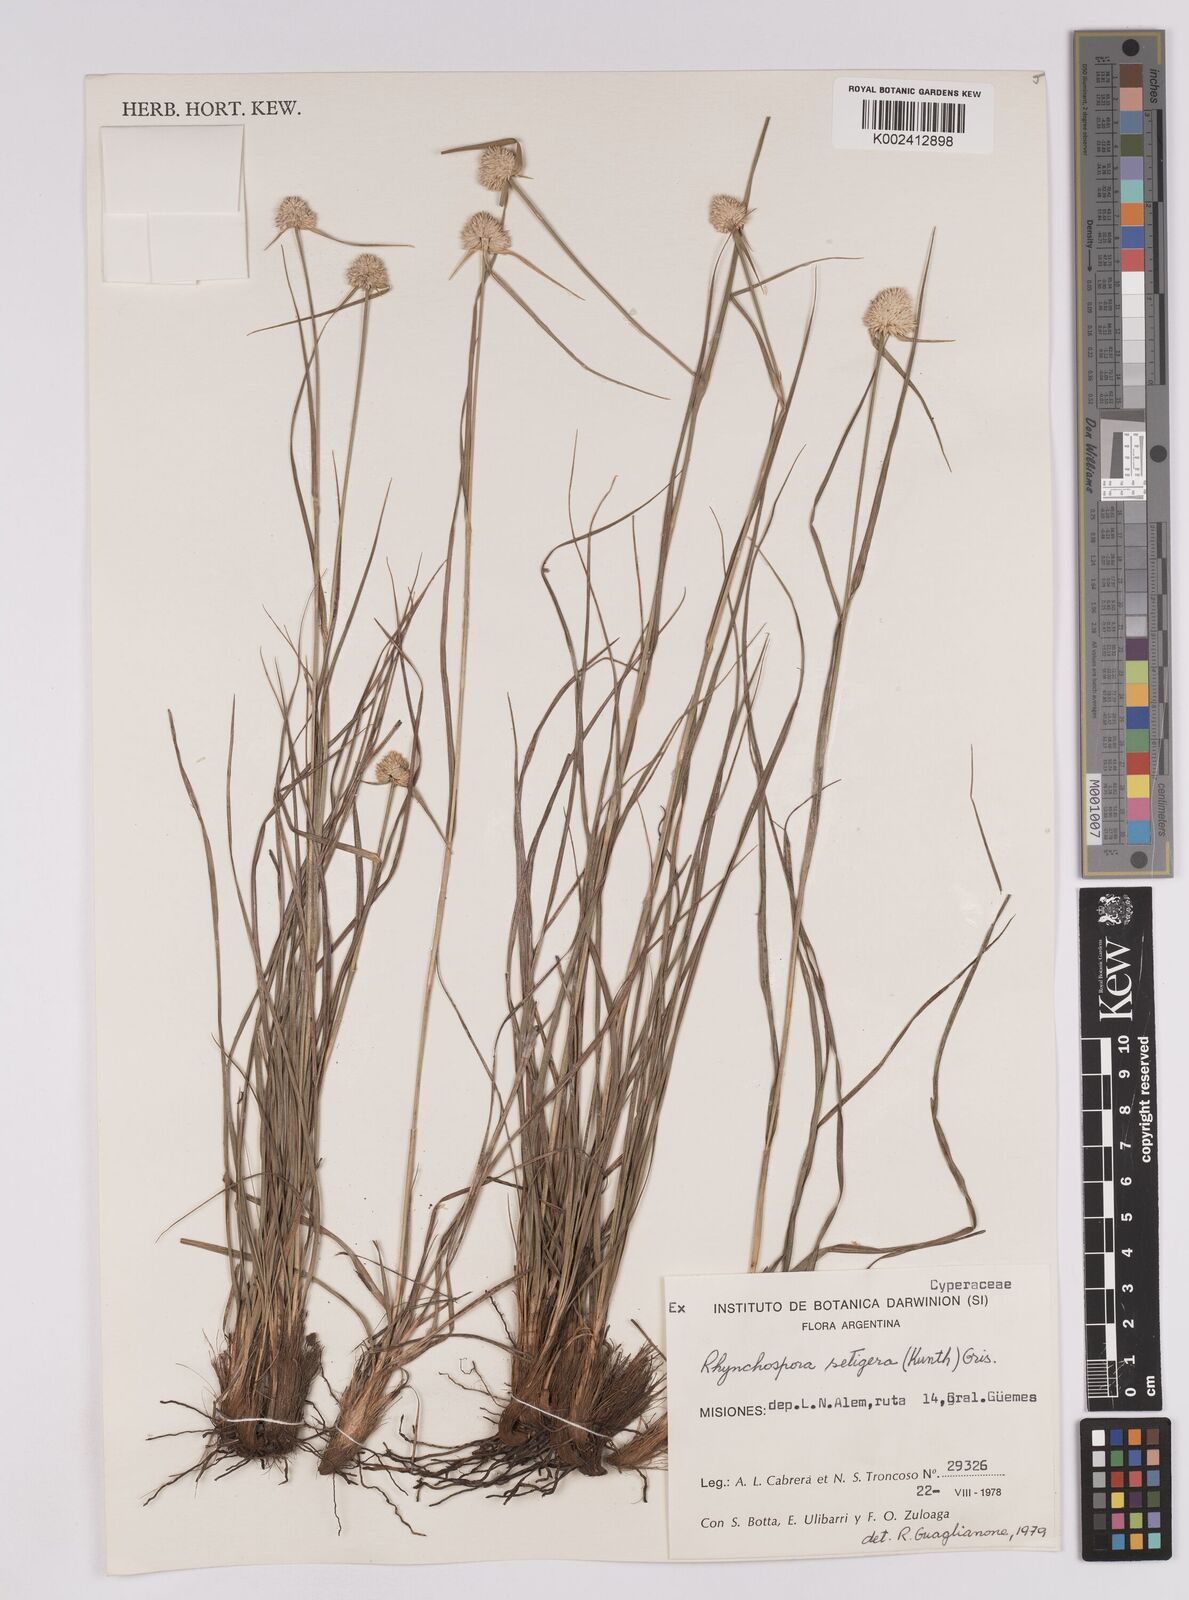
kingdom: Plantae
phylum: Tracheophyta
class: Liliopsida
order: Poales
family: Cyperaceae
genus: Rhynchospora
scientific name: Rhynchospora setigera
